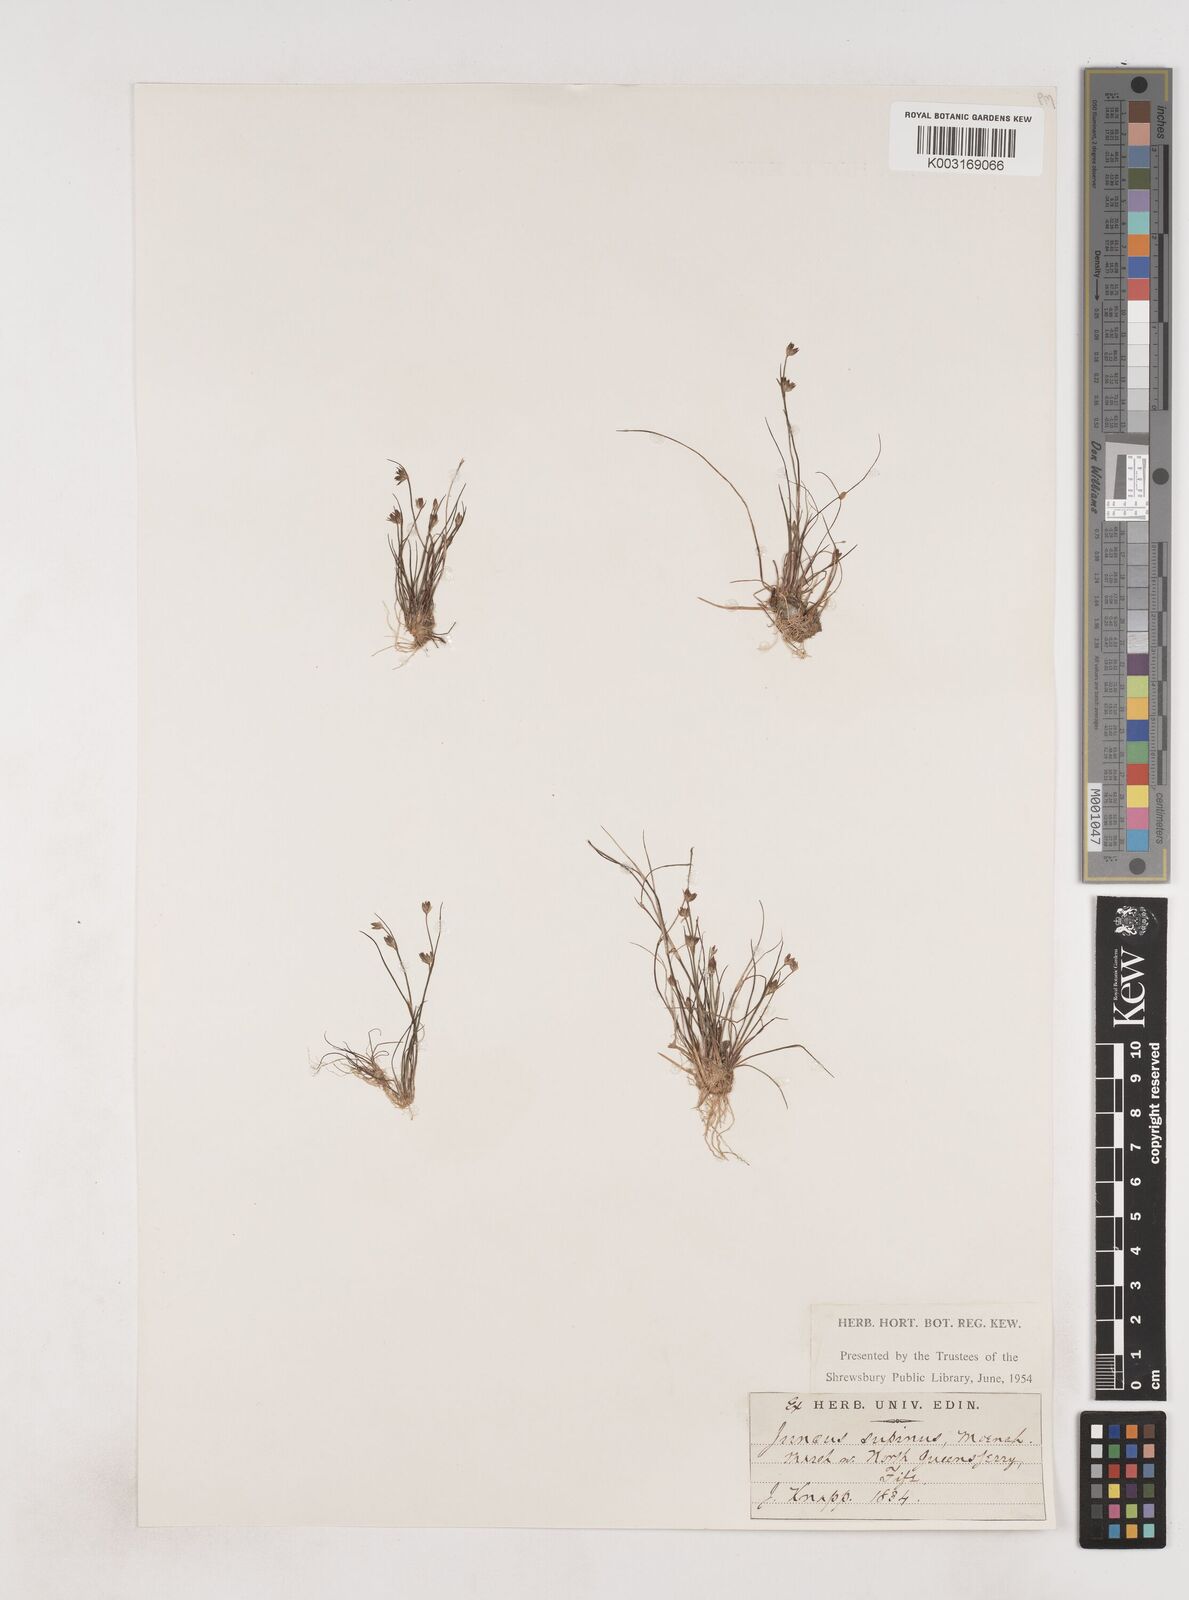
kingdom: Plantae
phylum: Tracheophyta
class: Liliopsida
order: Poales
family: Juncaceae
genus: Juncus
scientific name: Juncus bulbosus
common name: Bulbous rush
